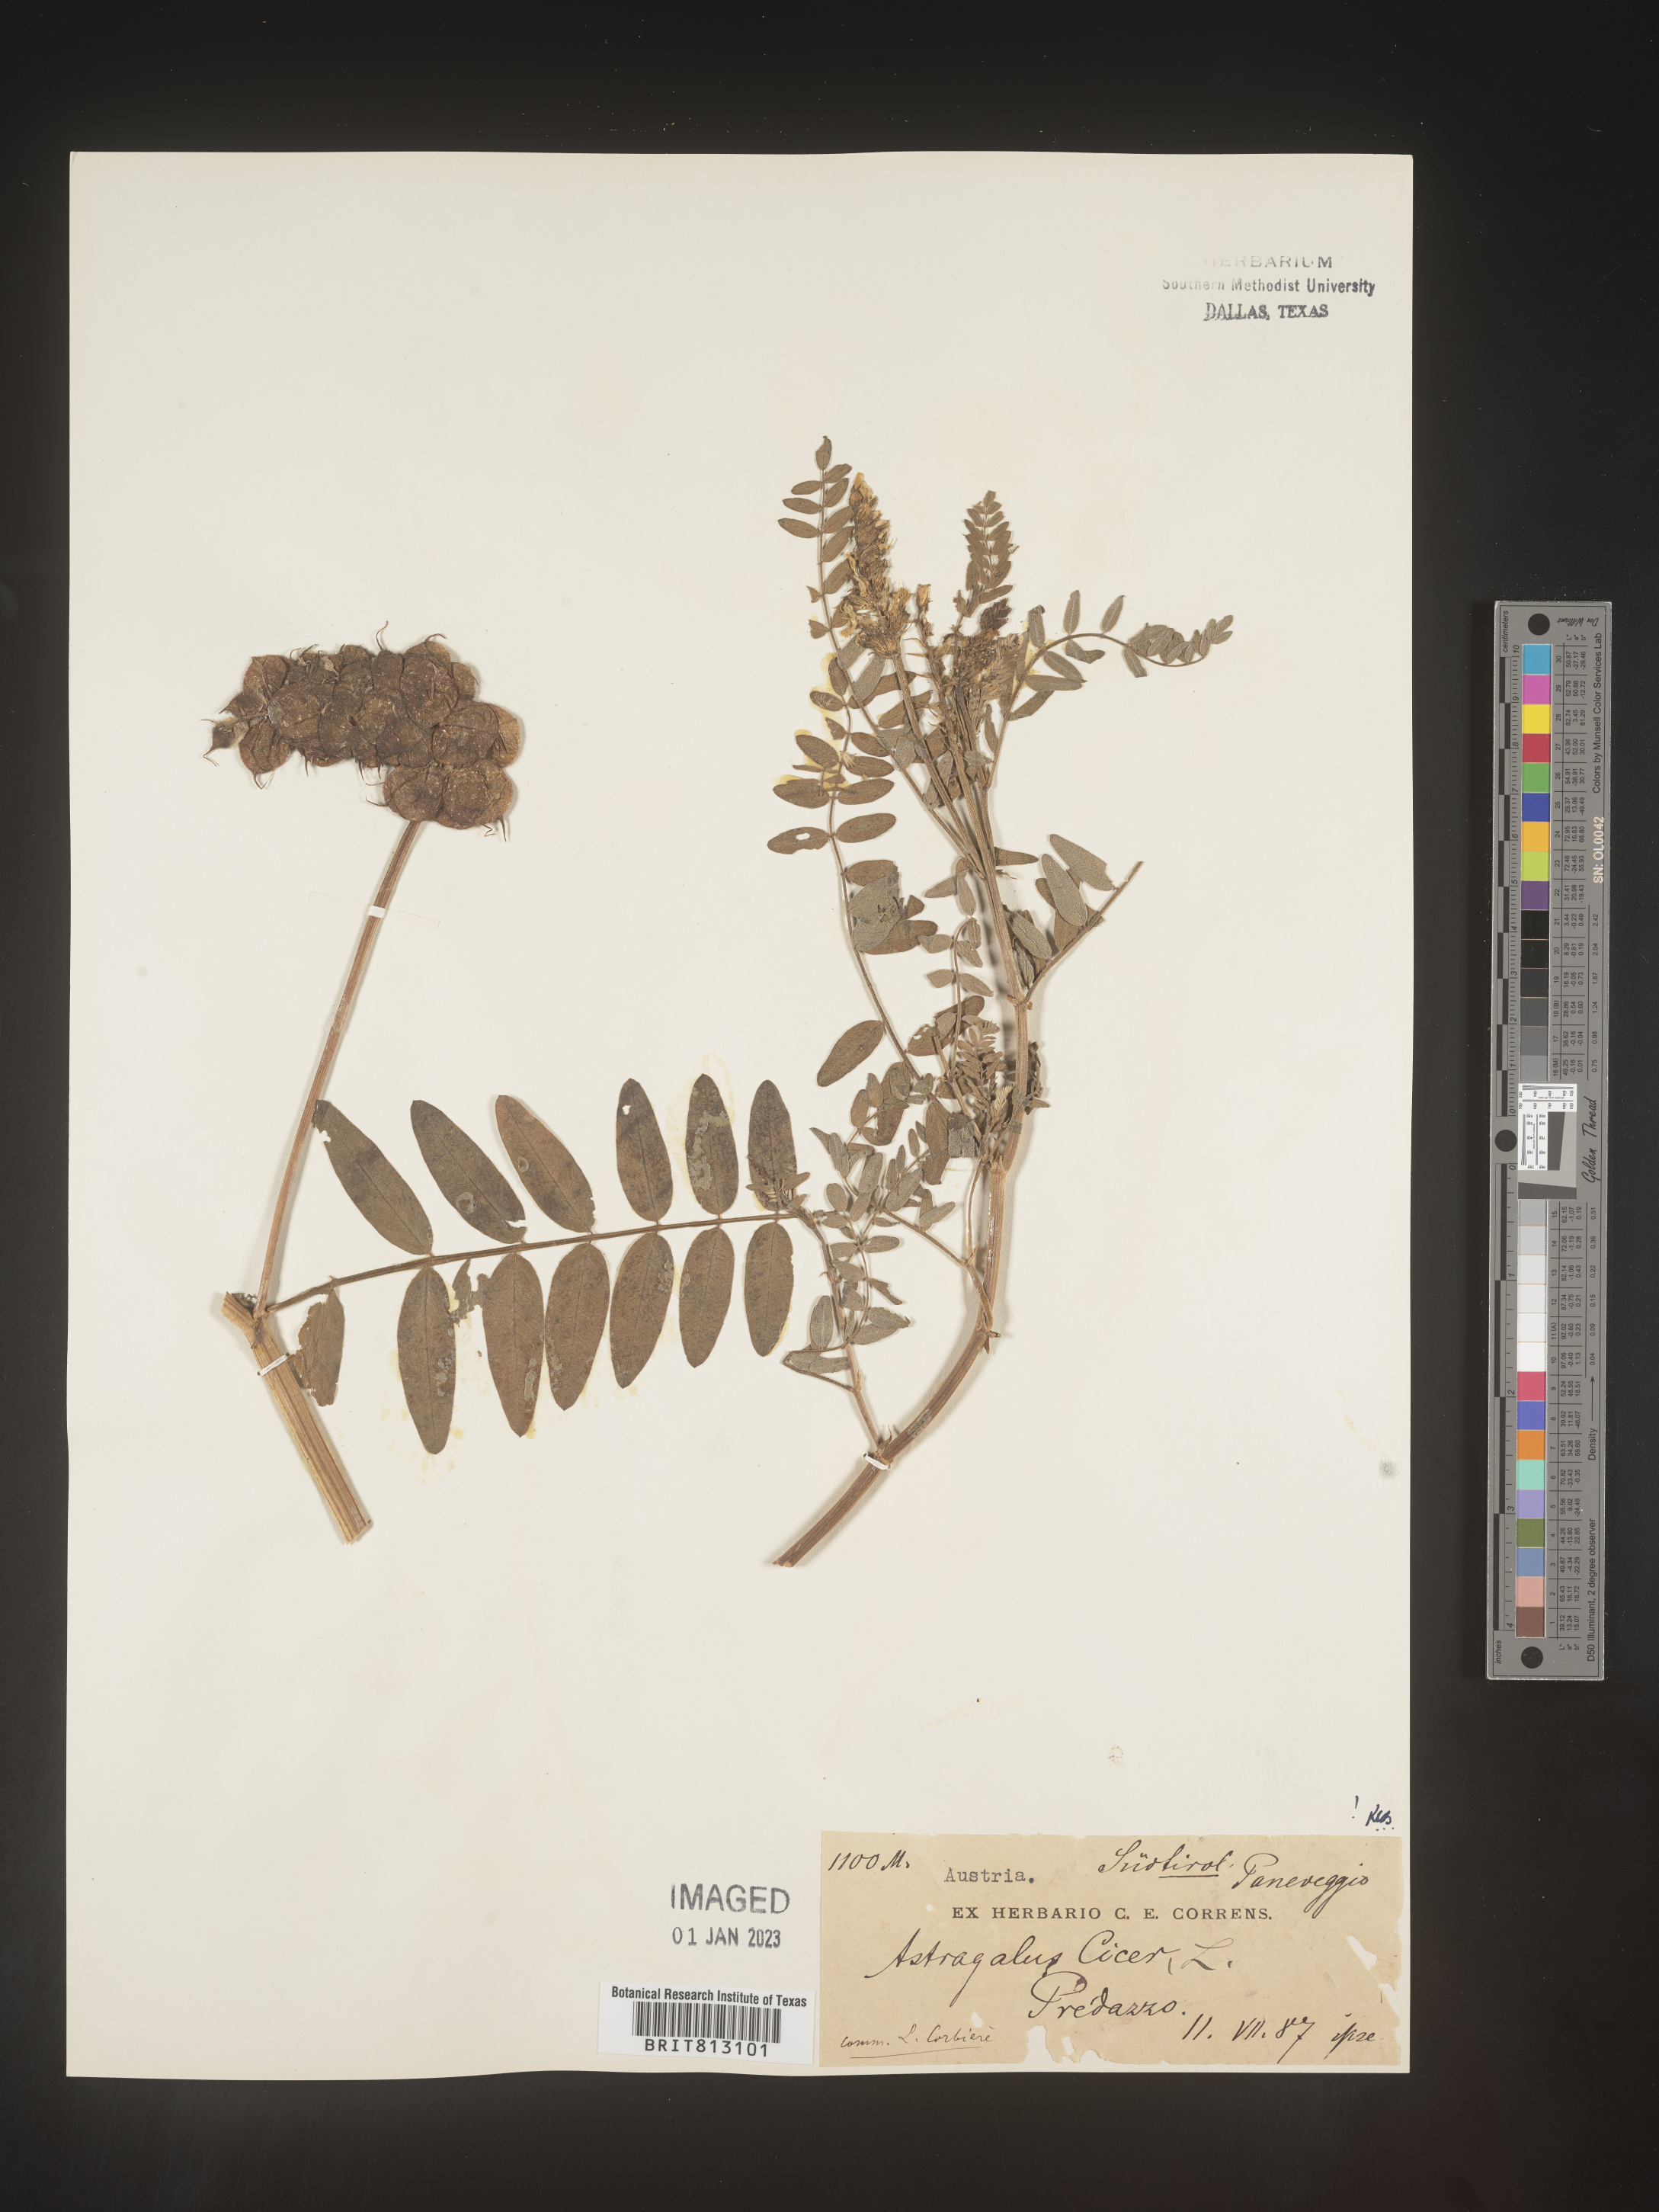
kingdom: Plantae
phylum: Tracheophyta
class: Magnoliopsida
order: Fabales
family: Fabaceae
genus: Astragalus
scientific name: Astragalus
